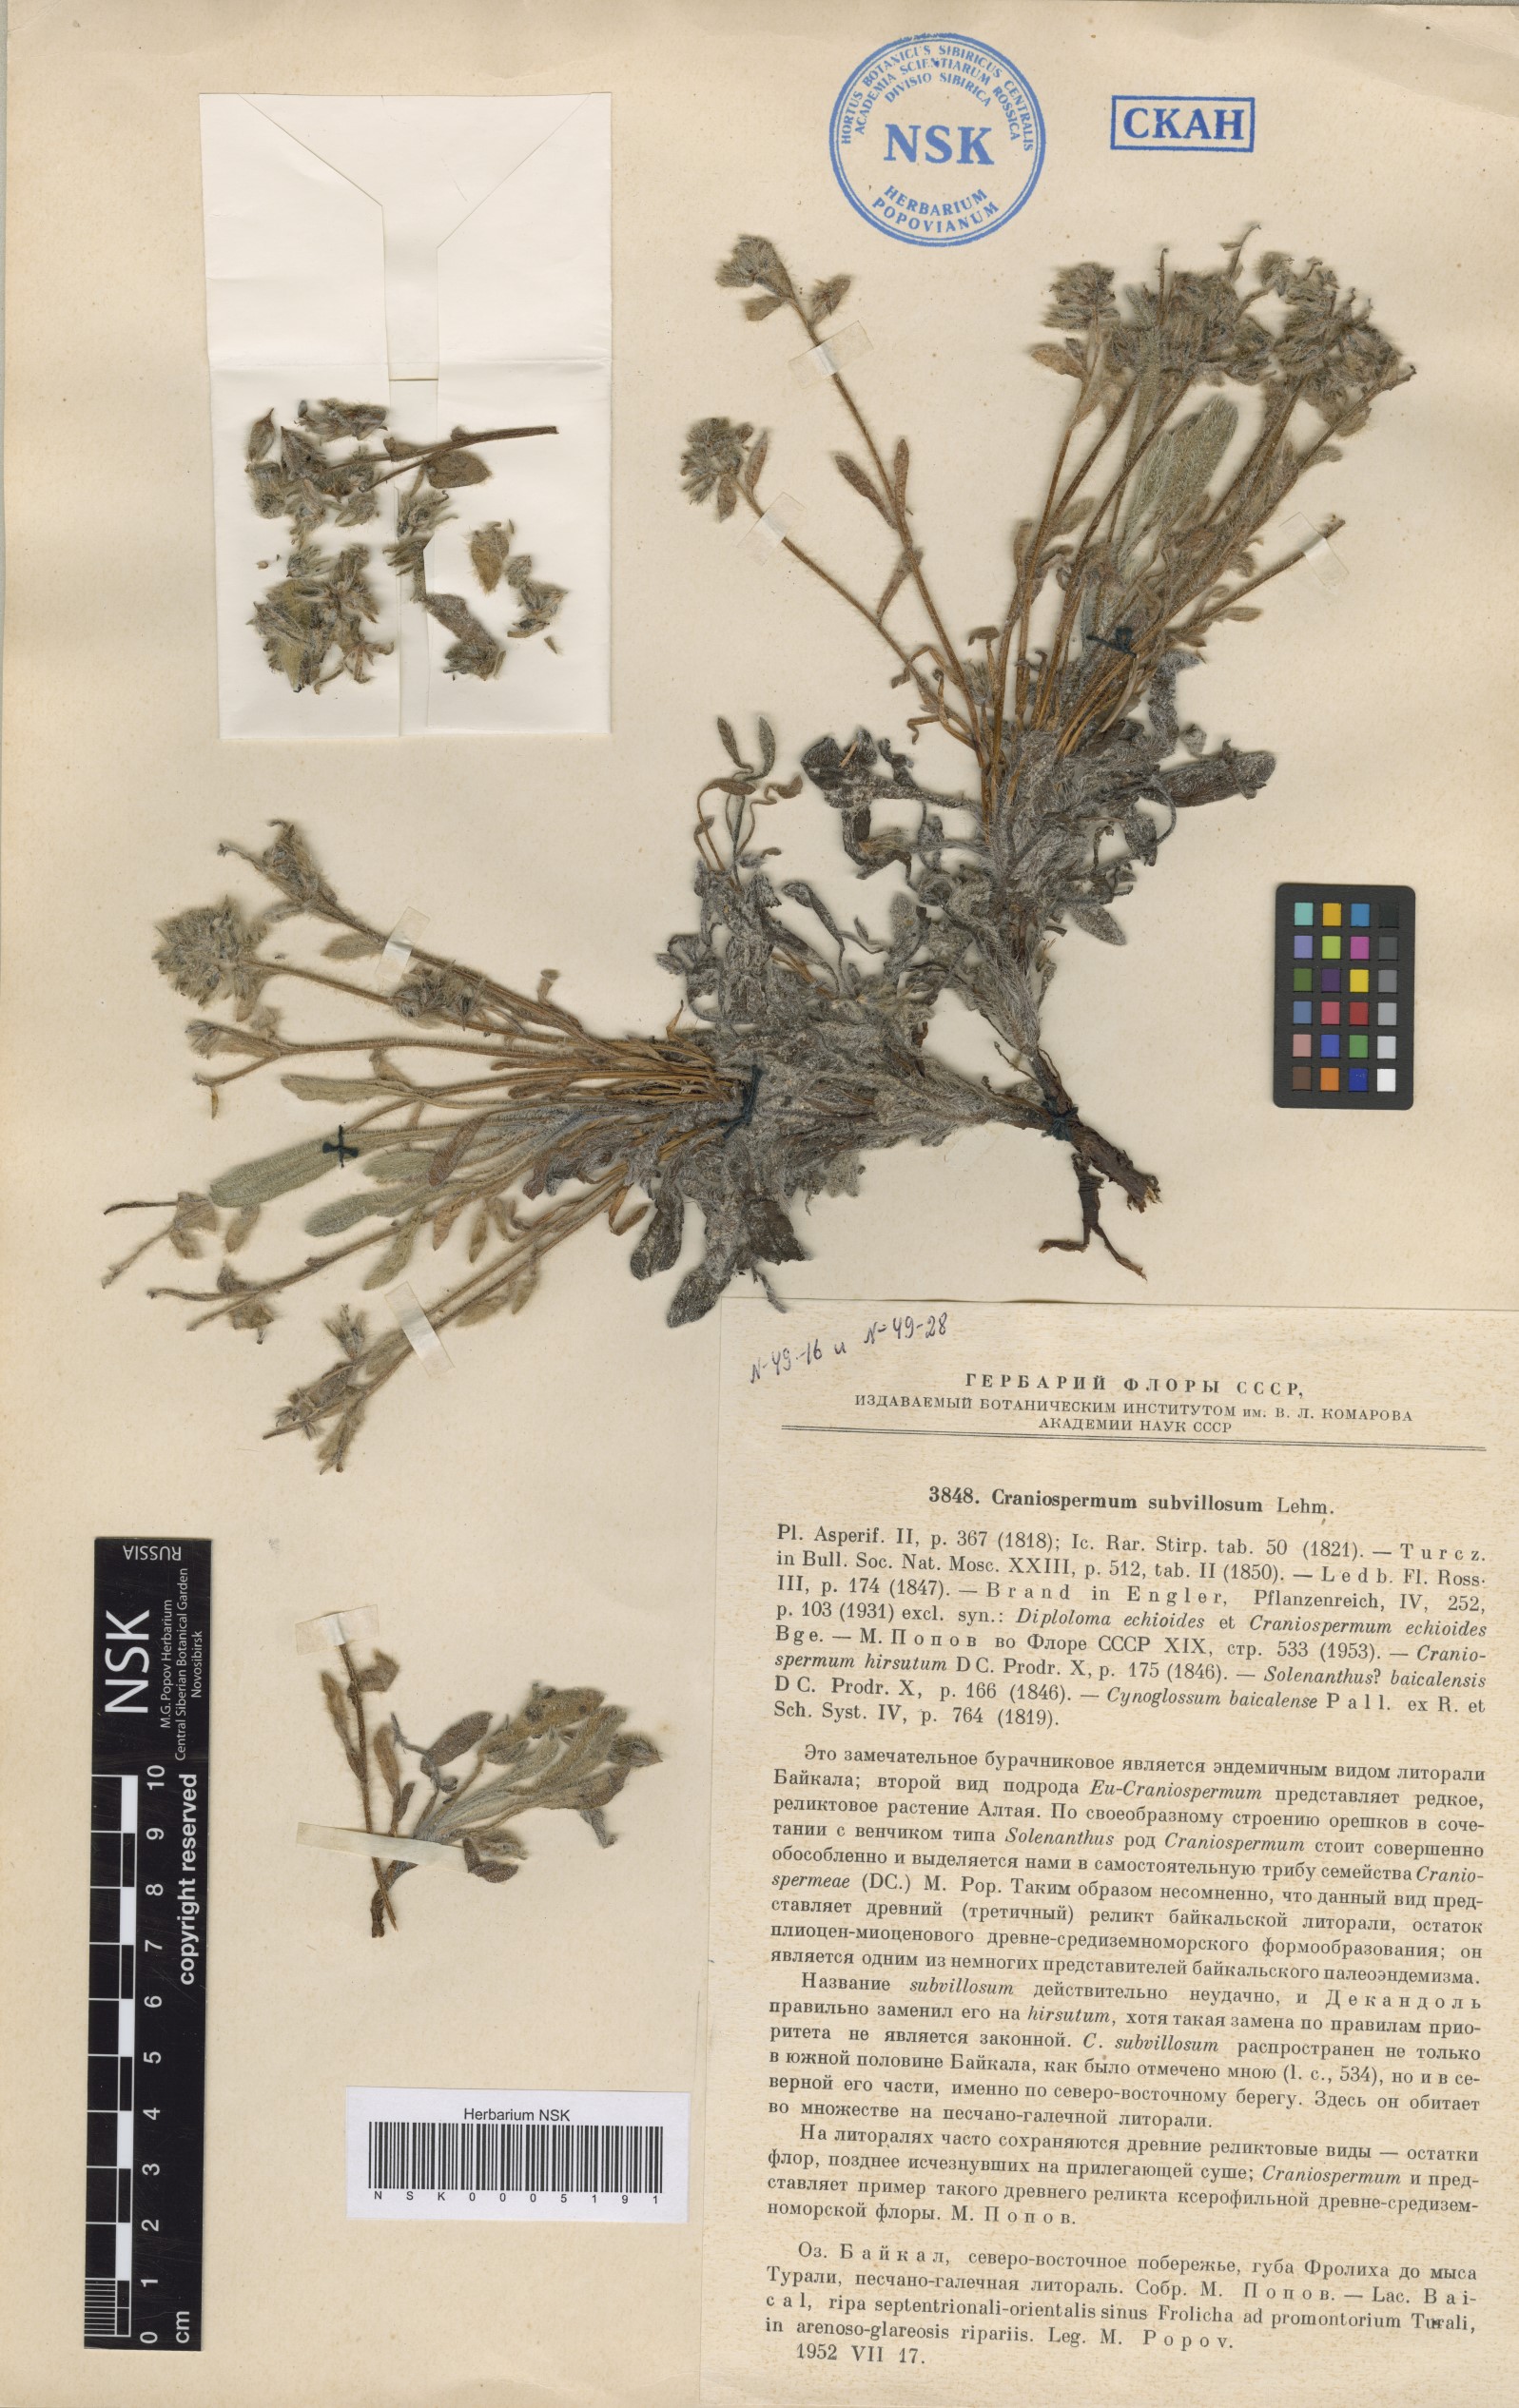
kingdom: Plantae
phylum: Tracheophyta
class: Magnoliopsida
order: Boraginales
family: Boraginaceae
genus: Craniospermum
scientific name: Craniospermum subvillosum
